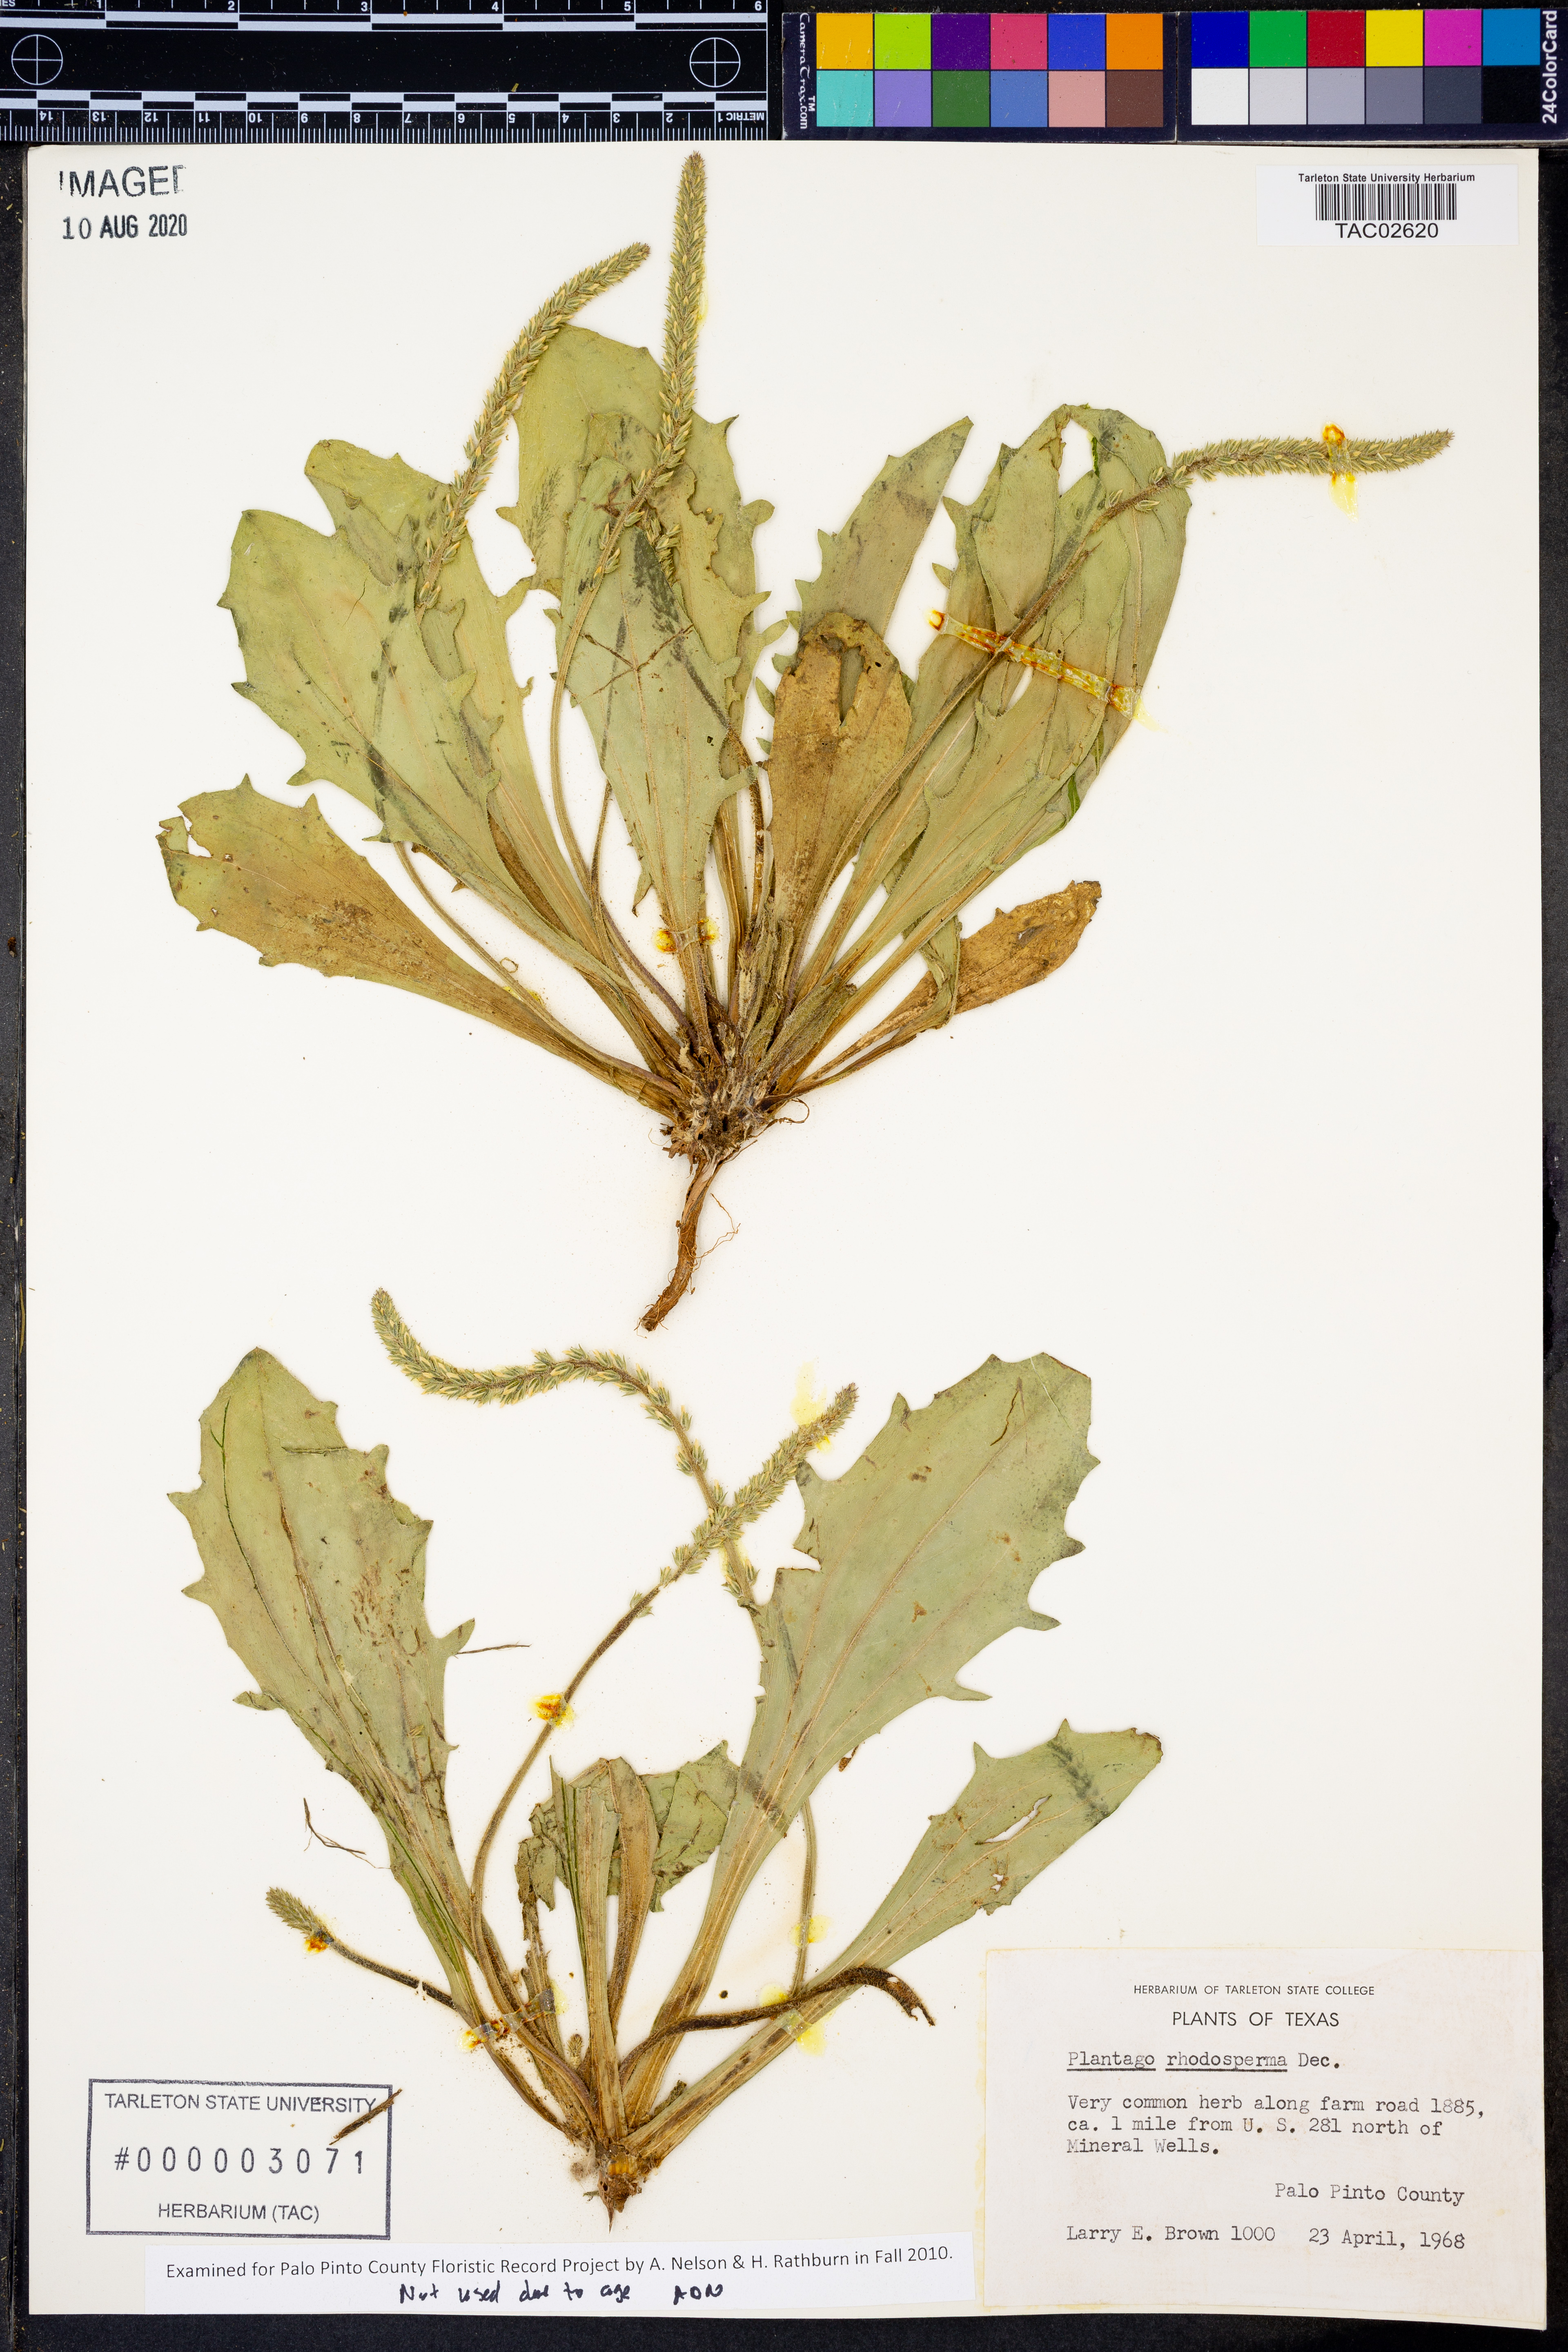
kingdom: Plantae
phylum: Tracheophyta
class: Magnoliopsida
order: Lamiales
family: Plantaginaceae
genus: Plantago
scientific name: Plantago rhodosperma
